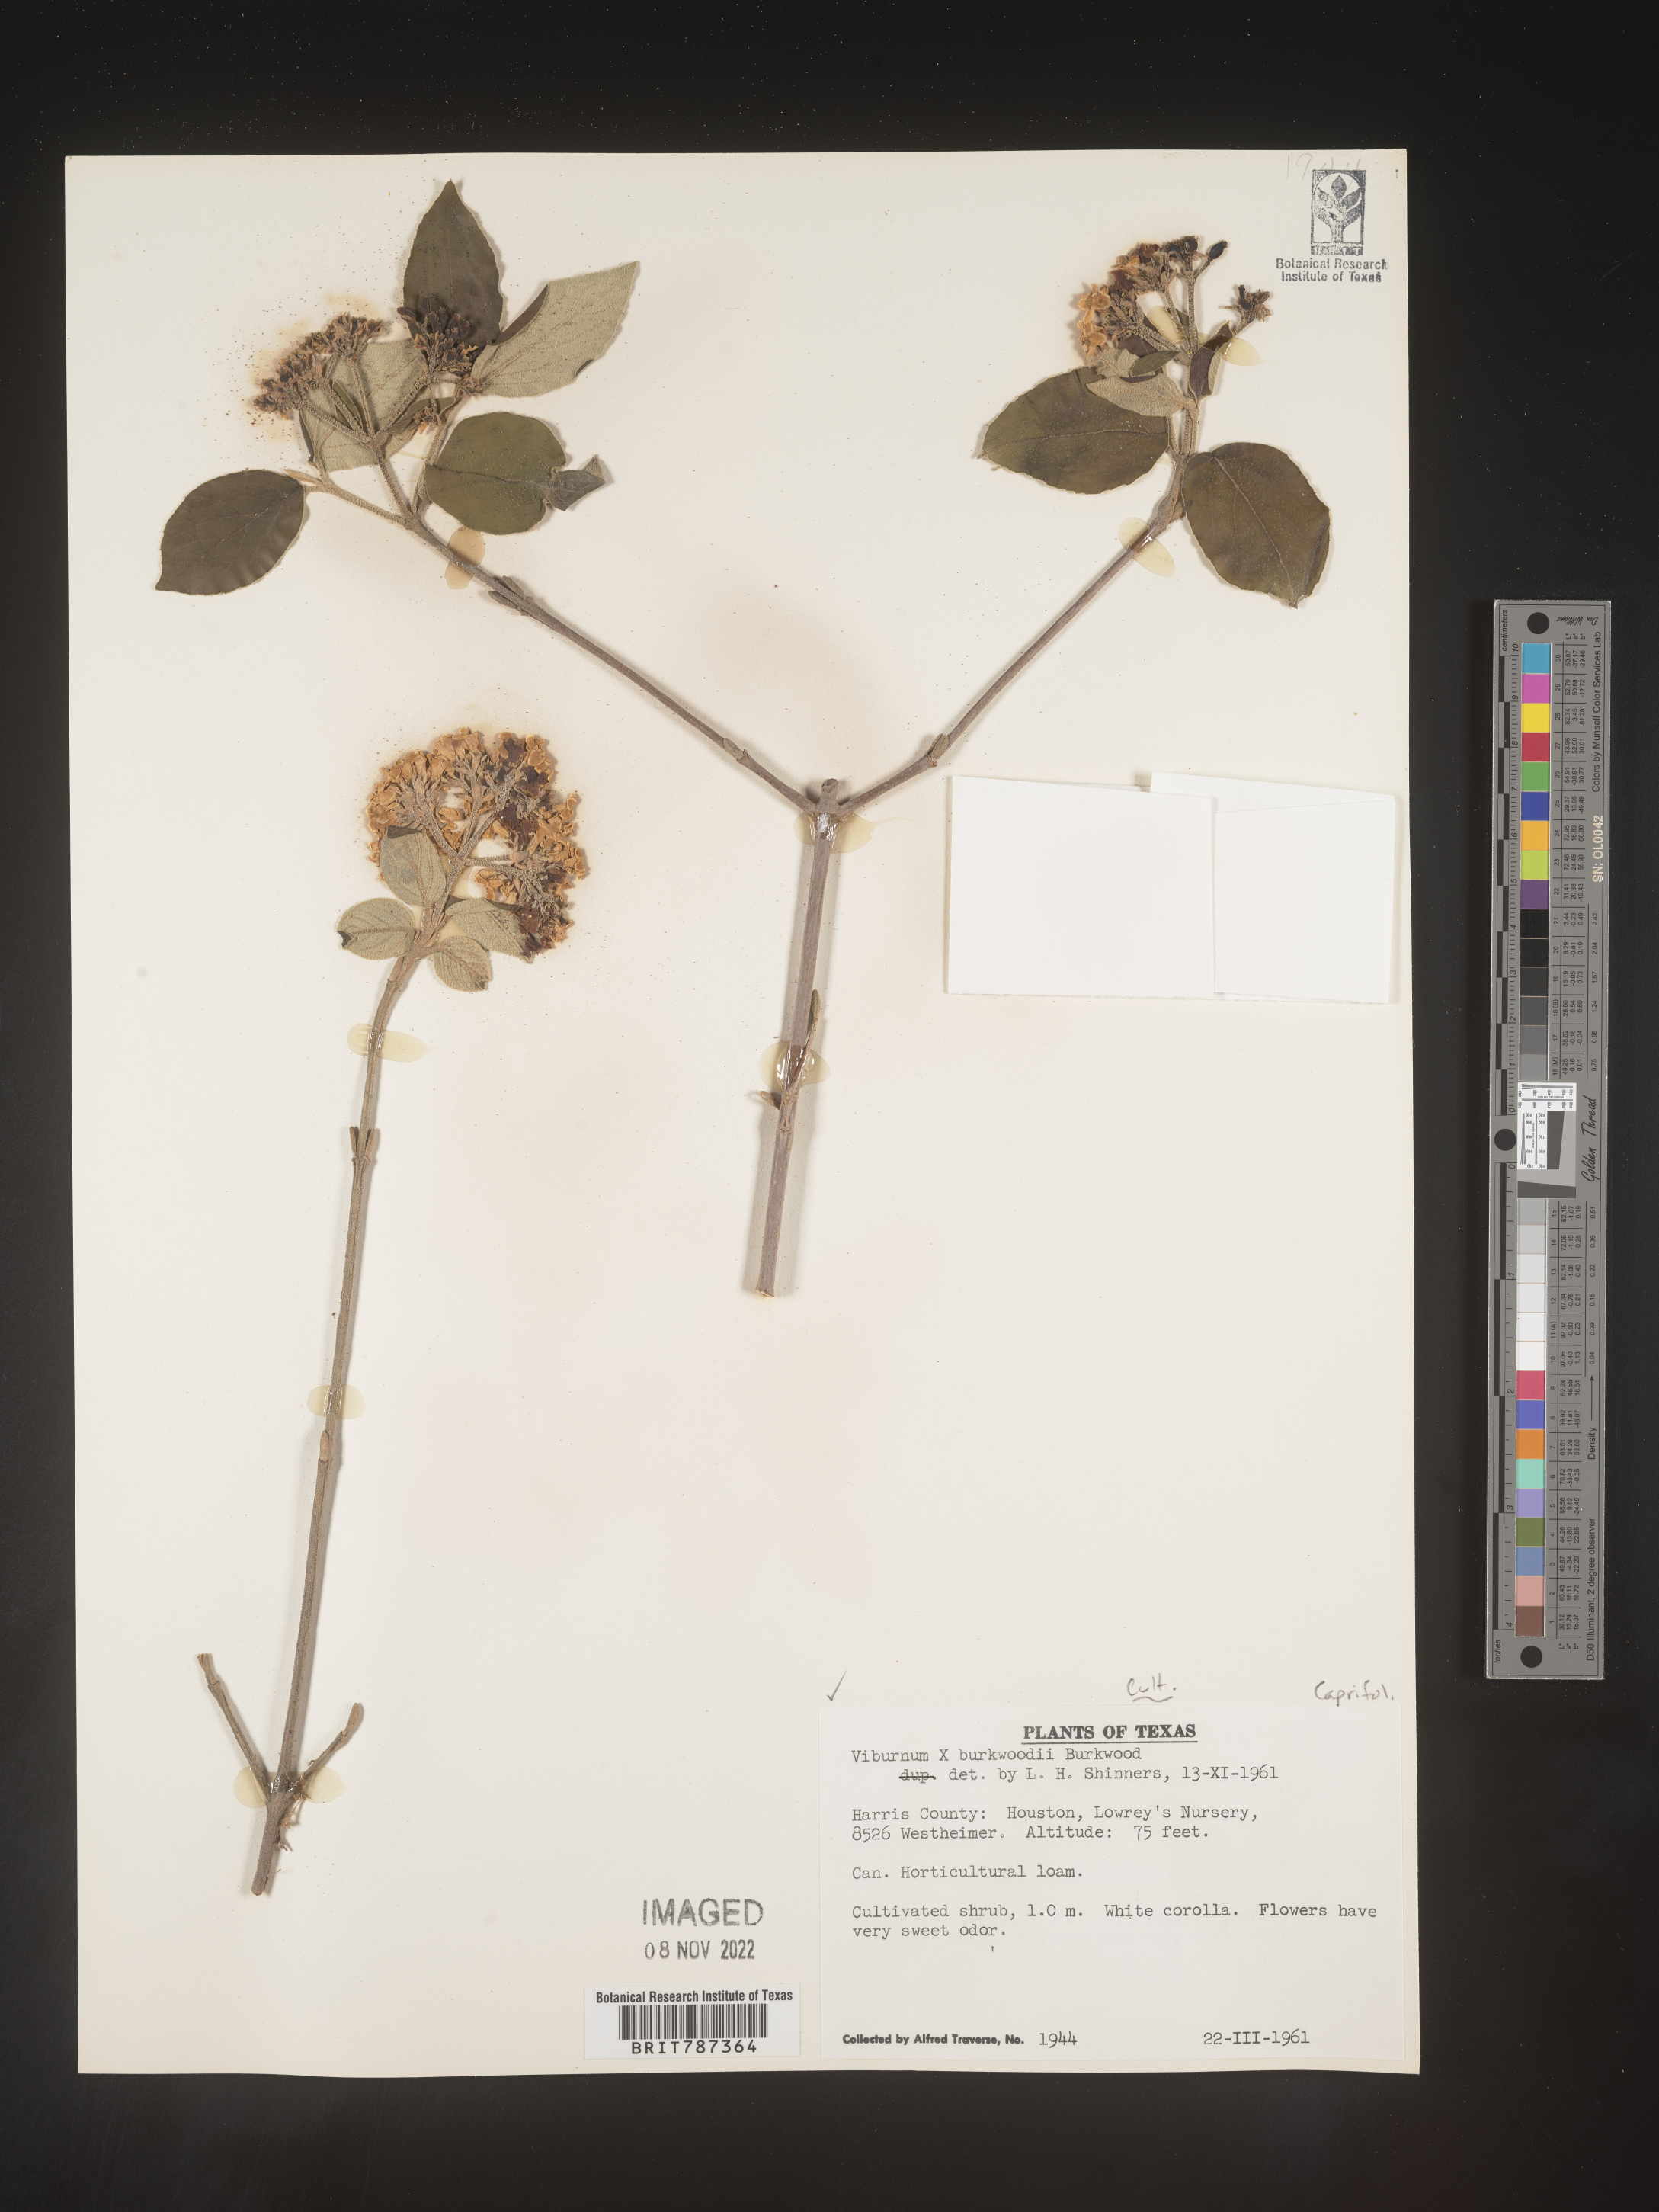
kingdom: Plantae
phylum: Tracheophyta
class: Magnoliopsida
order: Dipsacales
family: Viburnaceae
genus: Viburnum
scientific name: Viburnum
